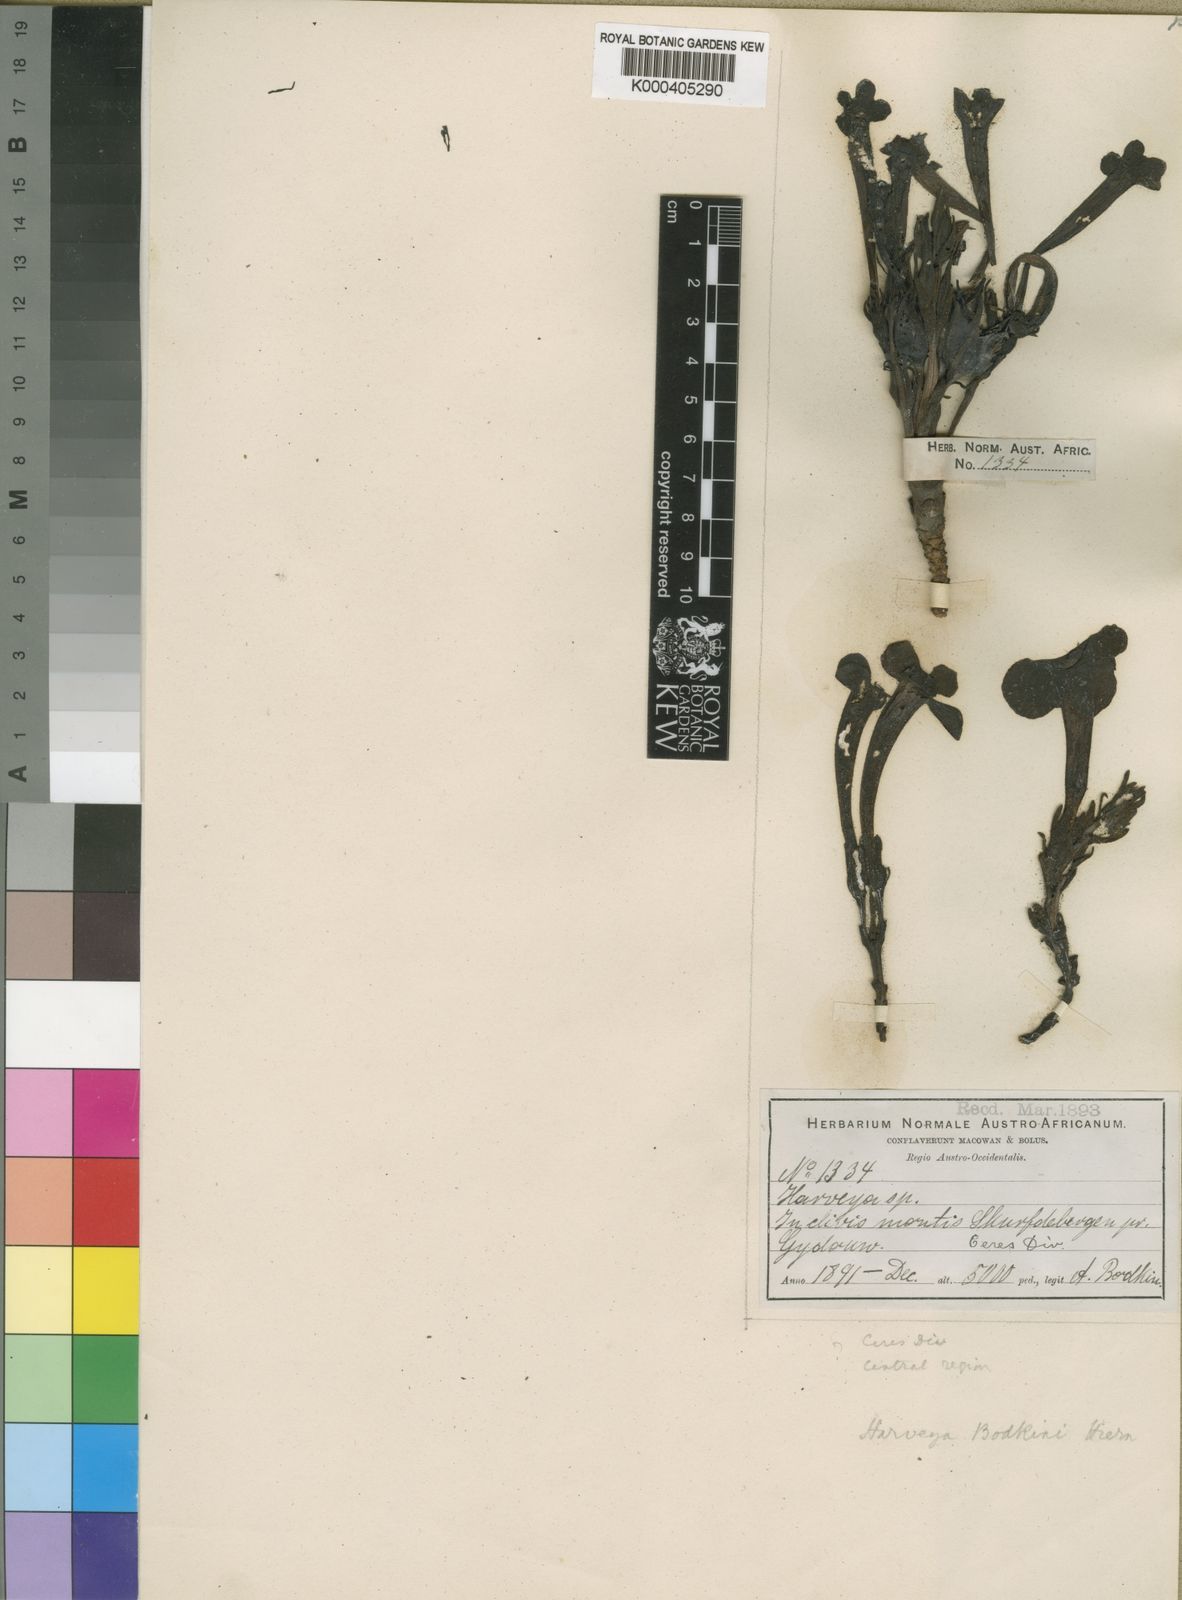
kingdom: Plantae
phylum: Tracheophyta
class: Magnoliopsida
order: Lamiales
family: Orobanchaceae
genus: Harveya
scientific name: Harveya bodkinii
